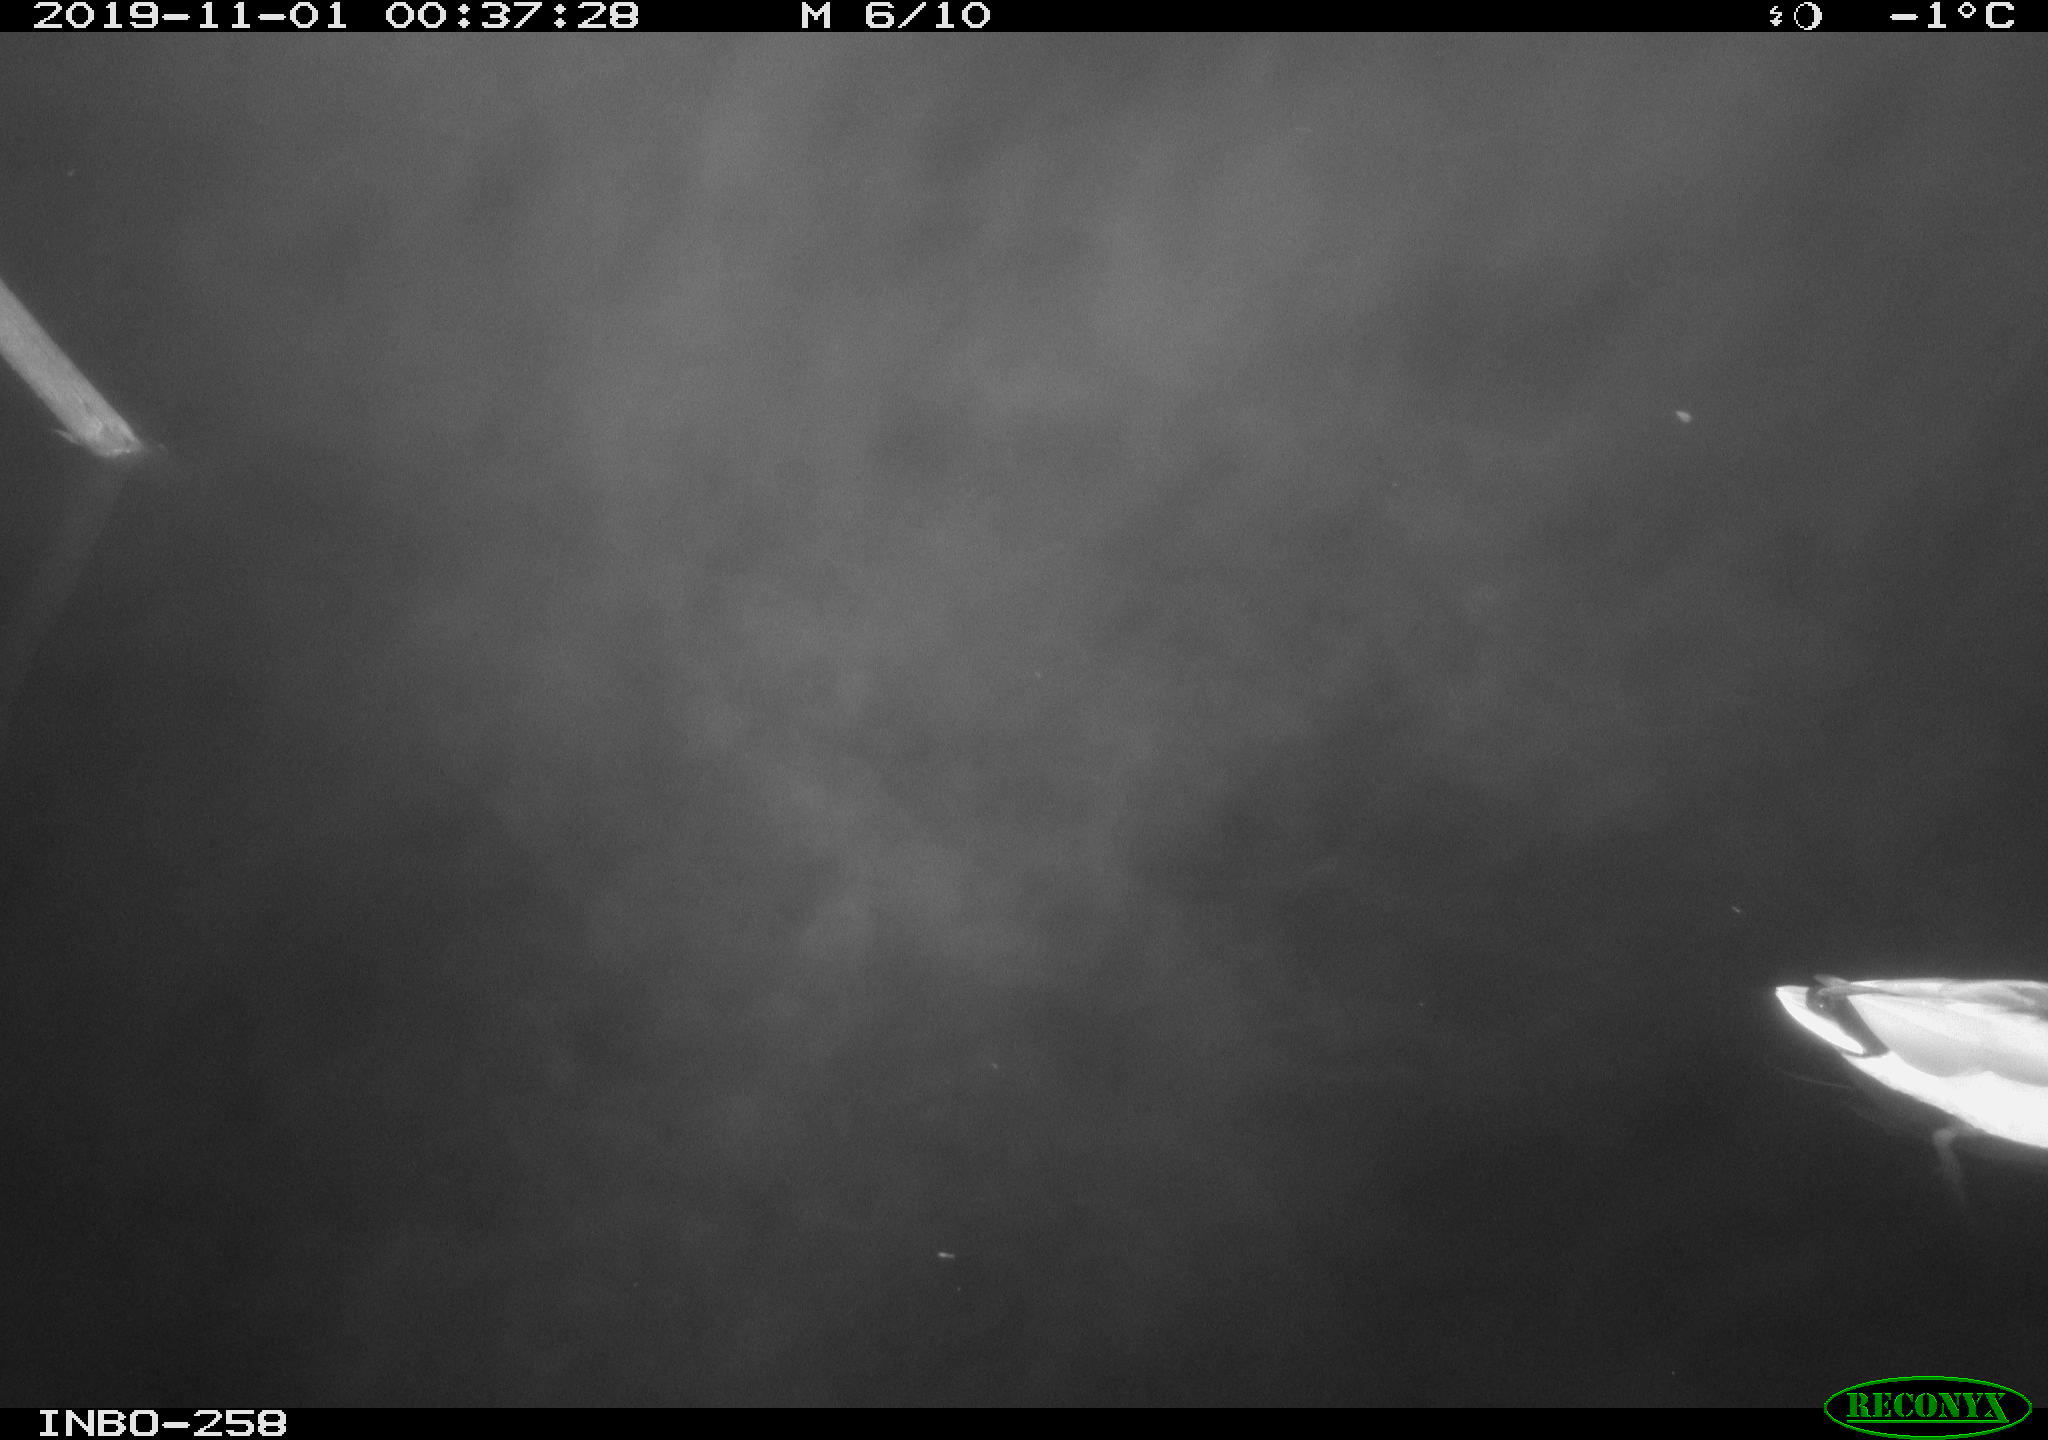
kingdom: Animalia
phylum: Chordata
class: Aves
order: Anseriformes
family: Anatidae
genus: Anas
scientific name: Anas platyrhynchos
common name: Mallard
